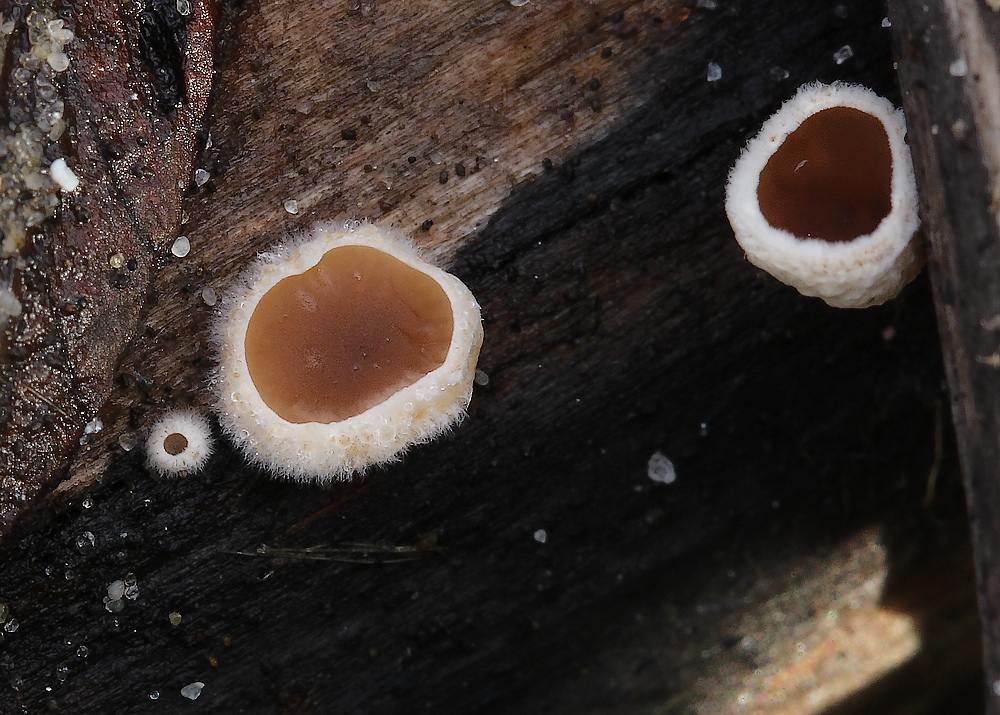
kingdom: Fungi
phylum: Basidiomycota
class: Agaricomycetes
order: Agaricales
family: Schizophyllaceae
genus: Schizophyllum
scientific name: Schizophyllum amplum
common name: poppel-hængeøre
